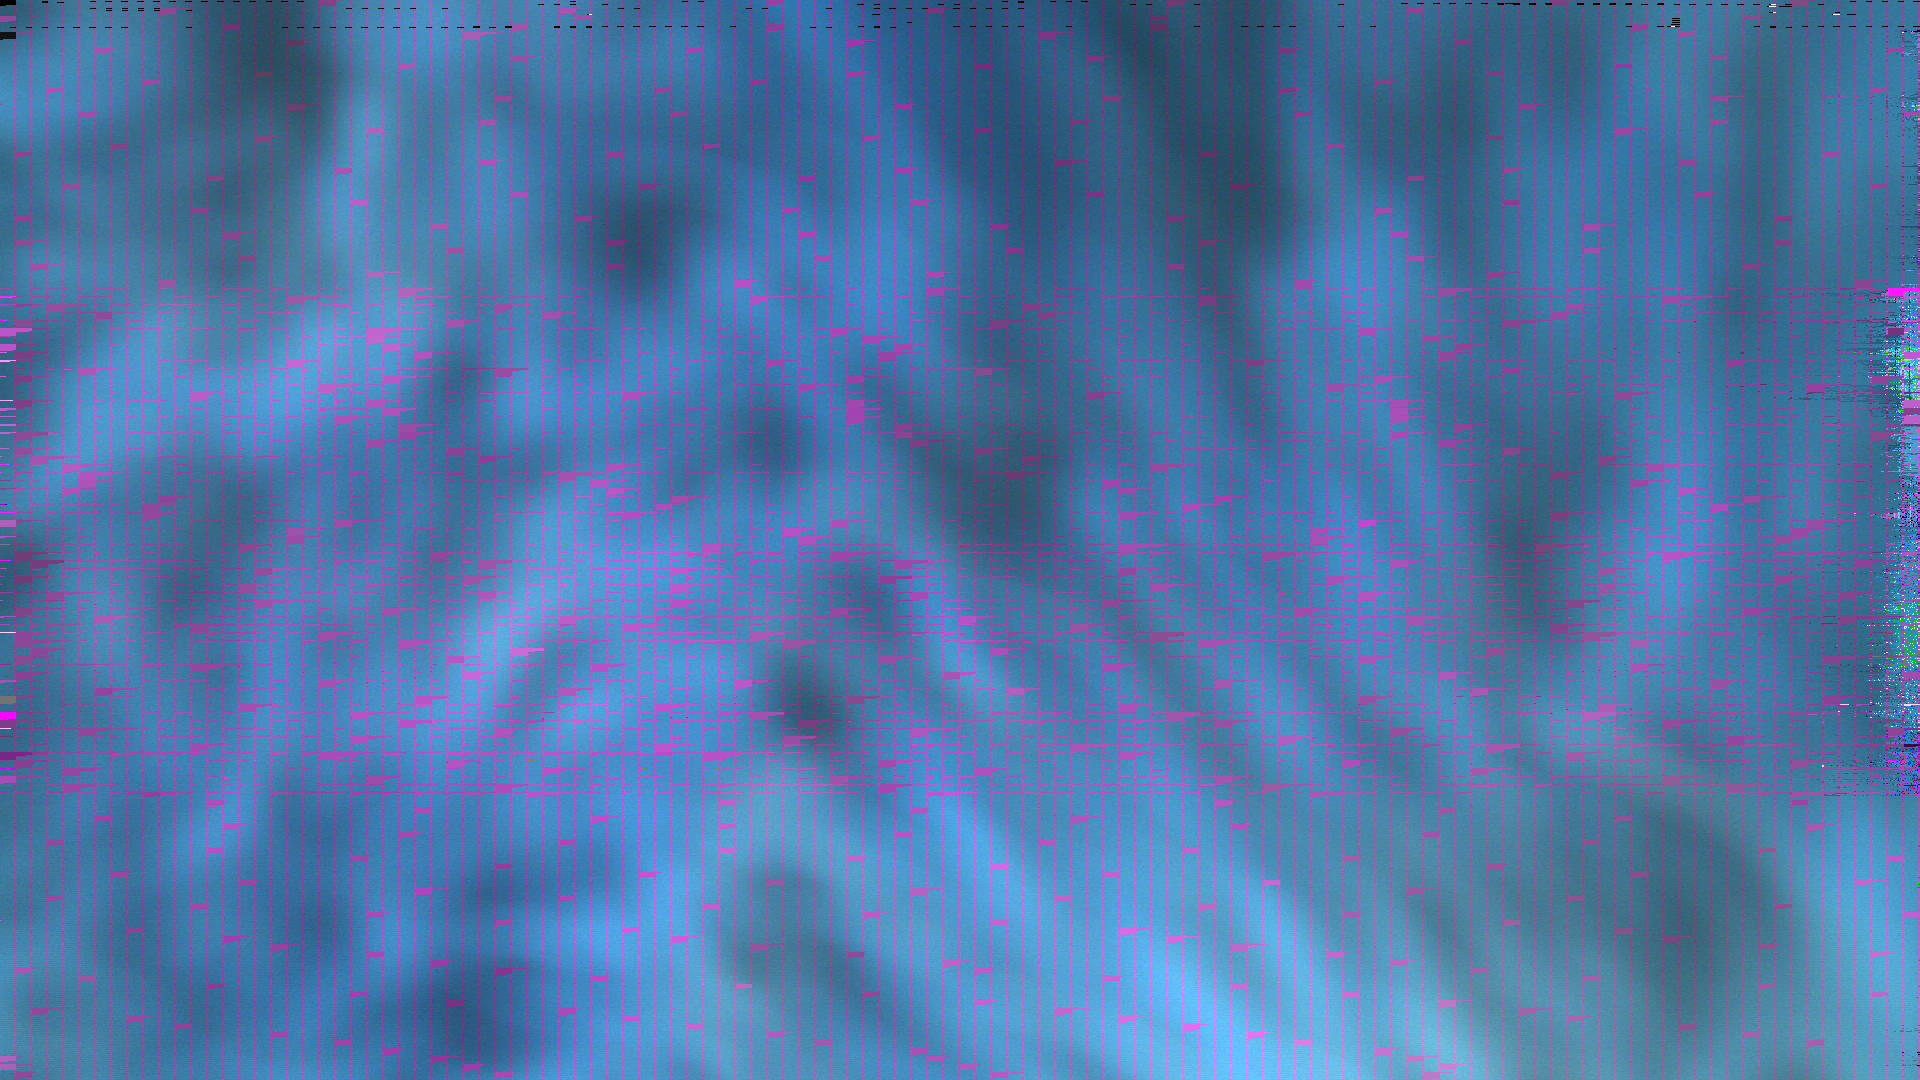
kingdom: Animalia
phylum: Chordata
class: Mammalia
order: Perissodactyla
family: Equidae
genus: Equus
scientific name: Equus caballus
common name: Horse
